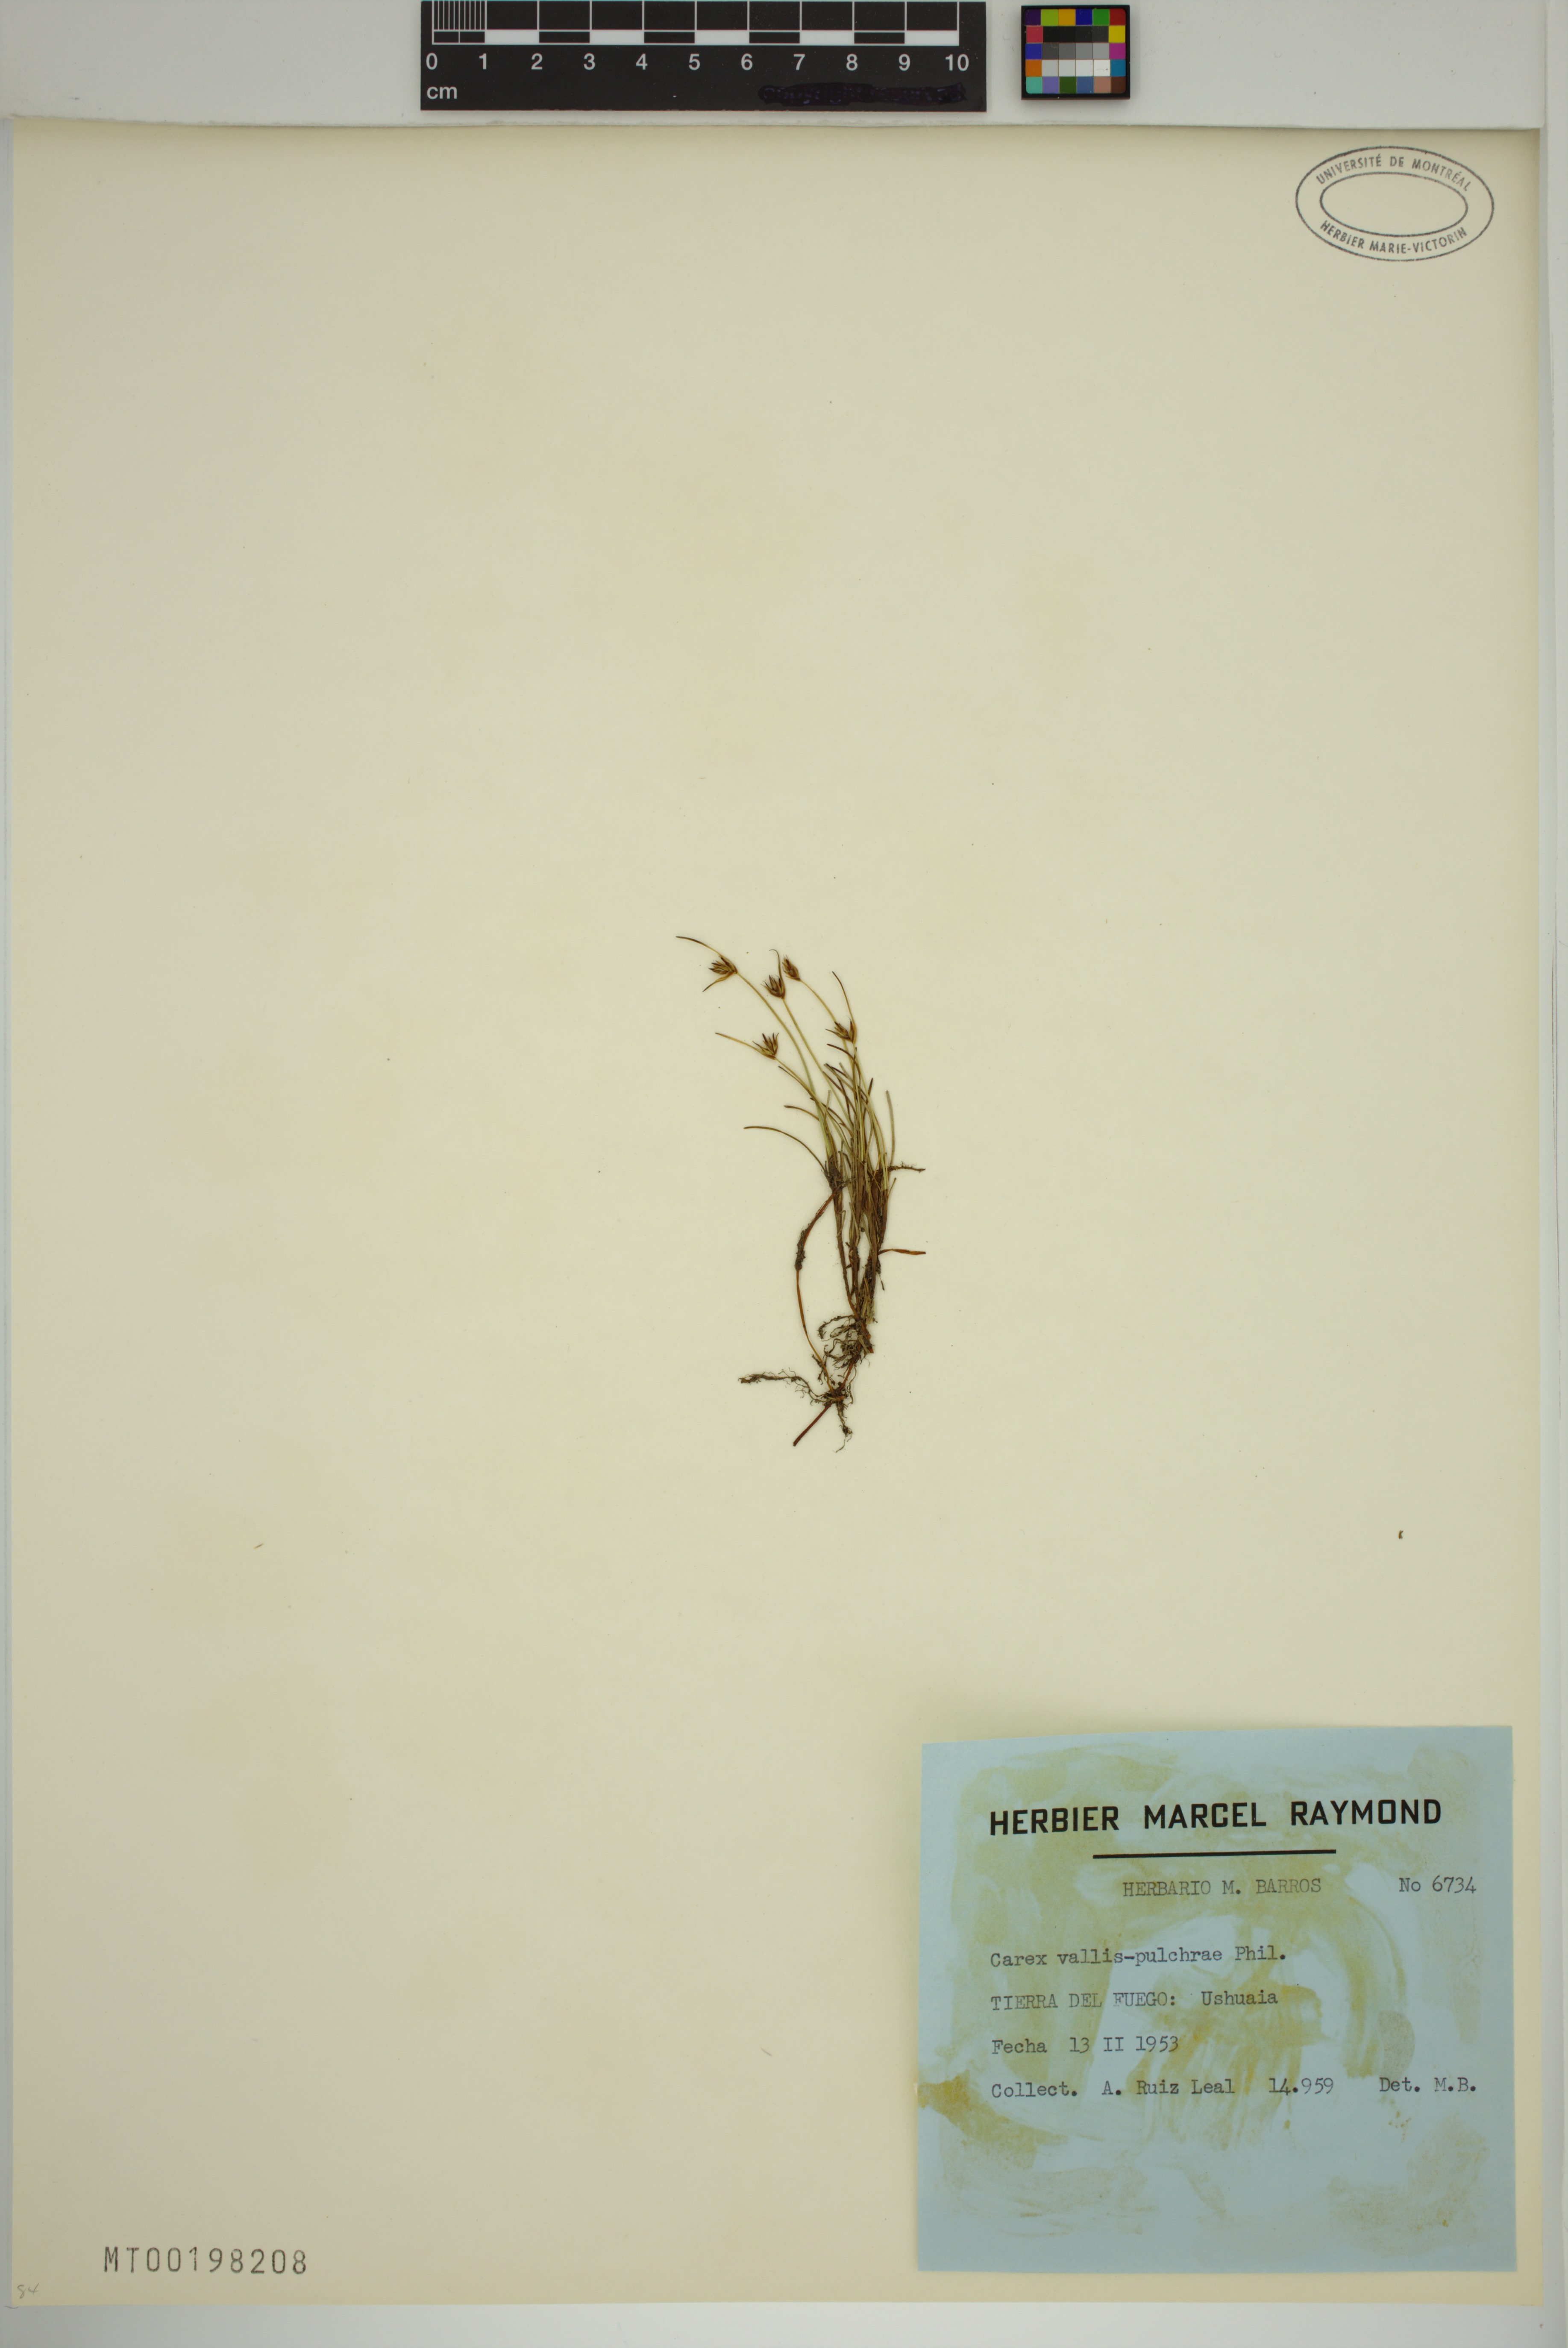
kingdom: Plantae
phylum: Tracheophyta
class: Liliopsida
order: Poales
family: Cyperaceae
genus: Carex
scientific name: Carex vallis-pulchrae
